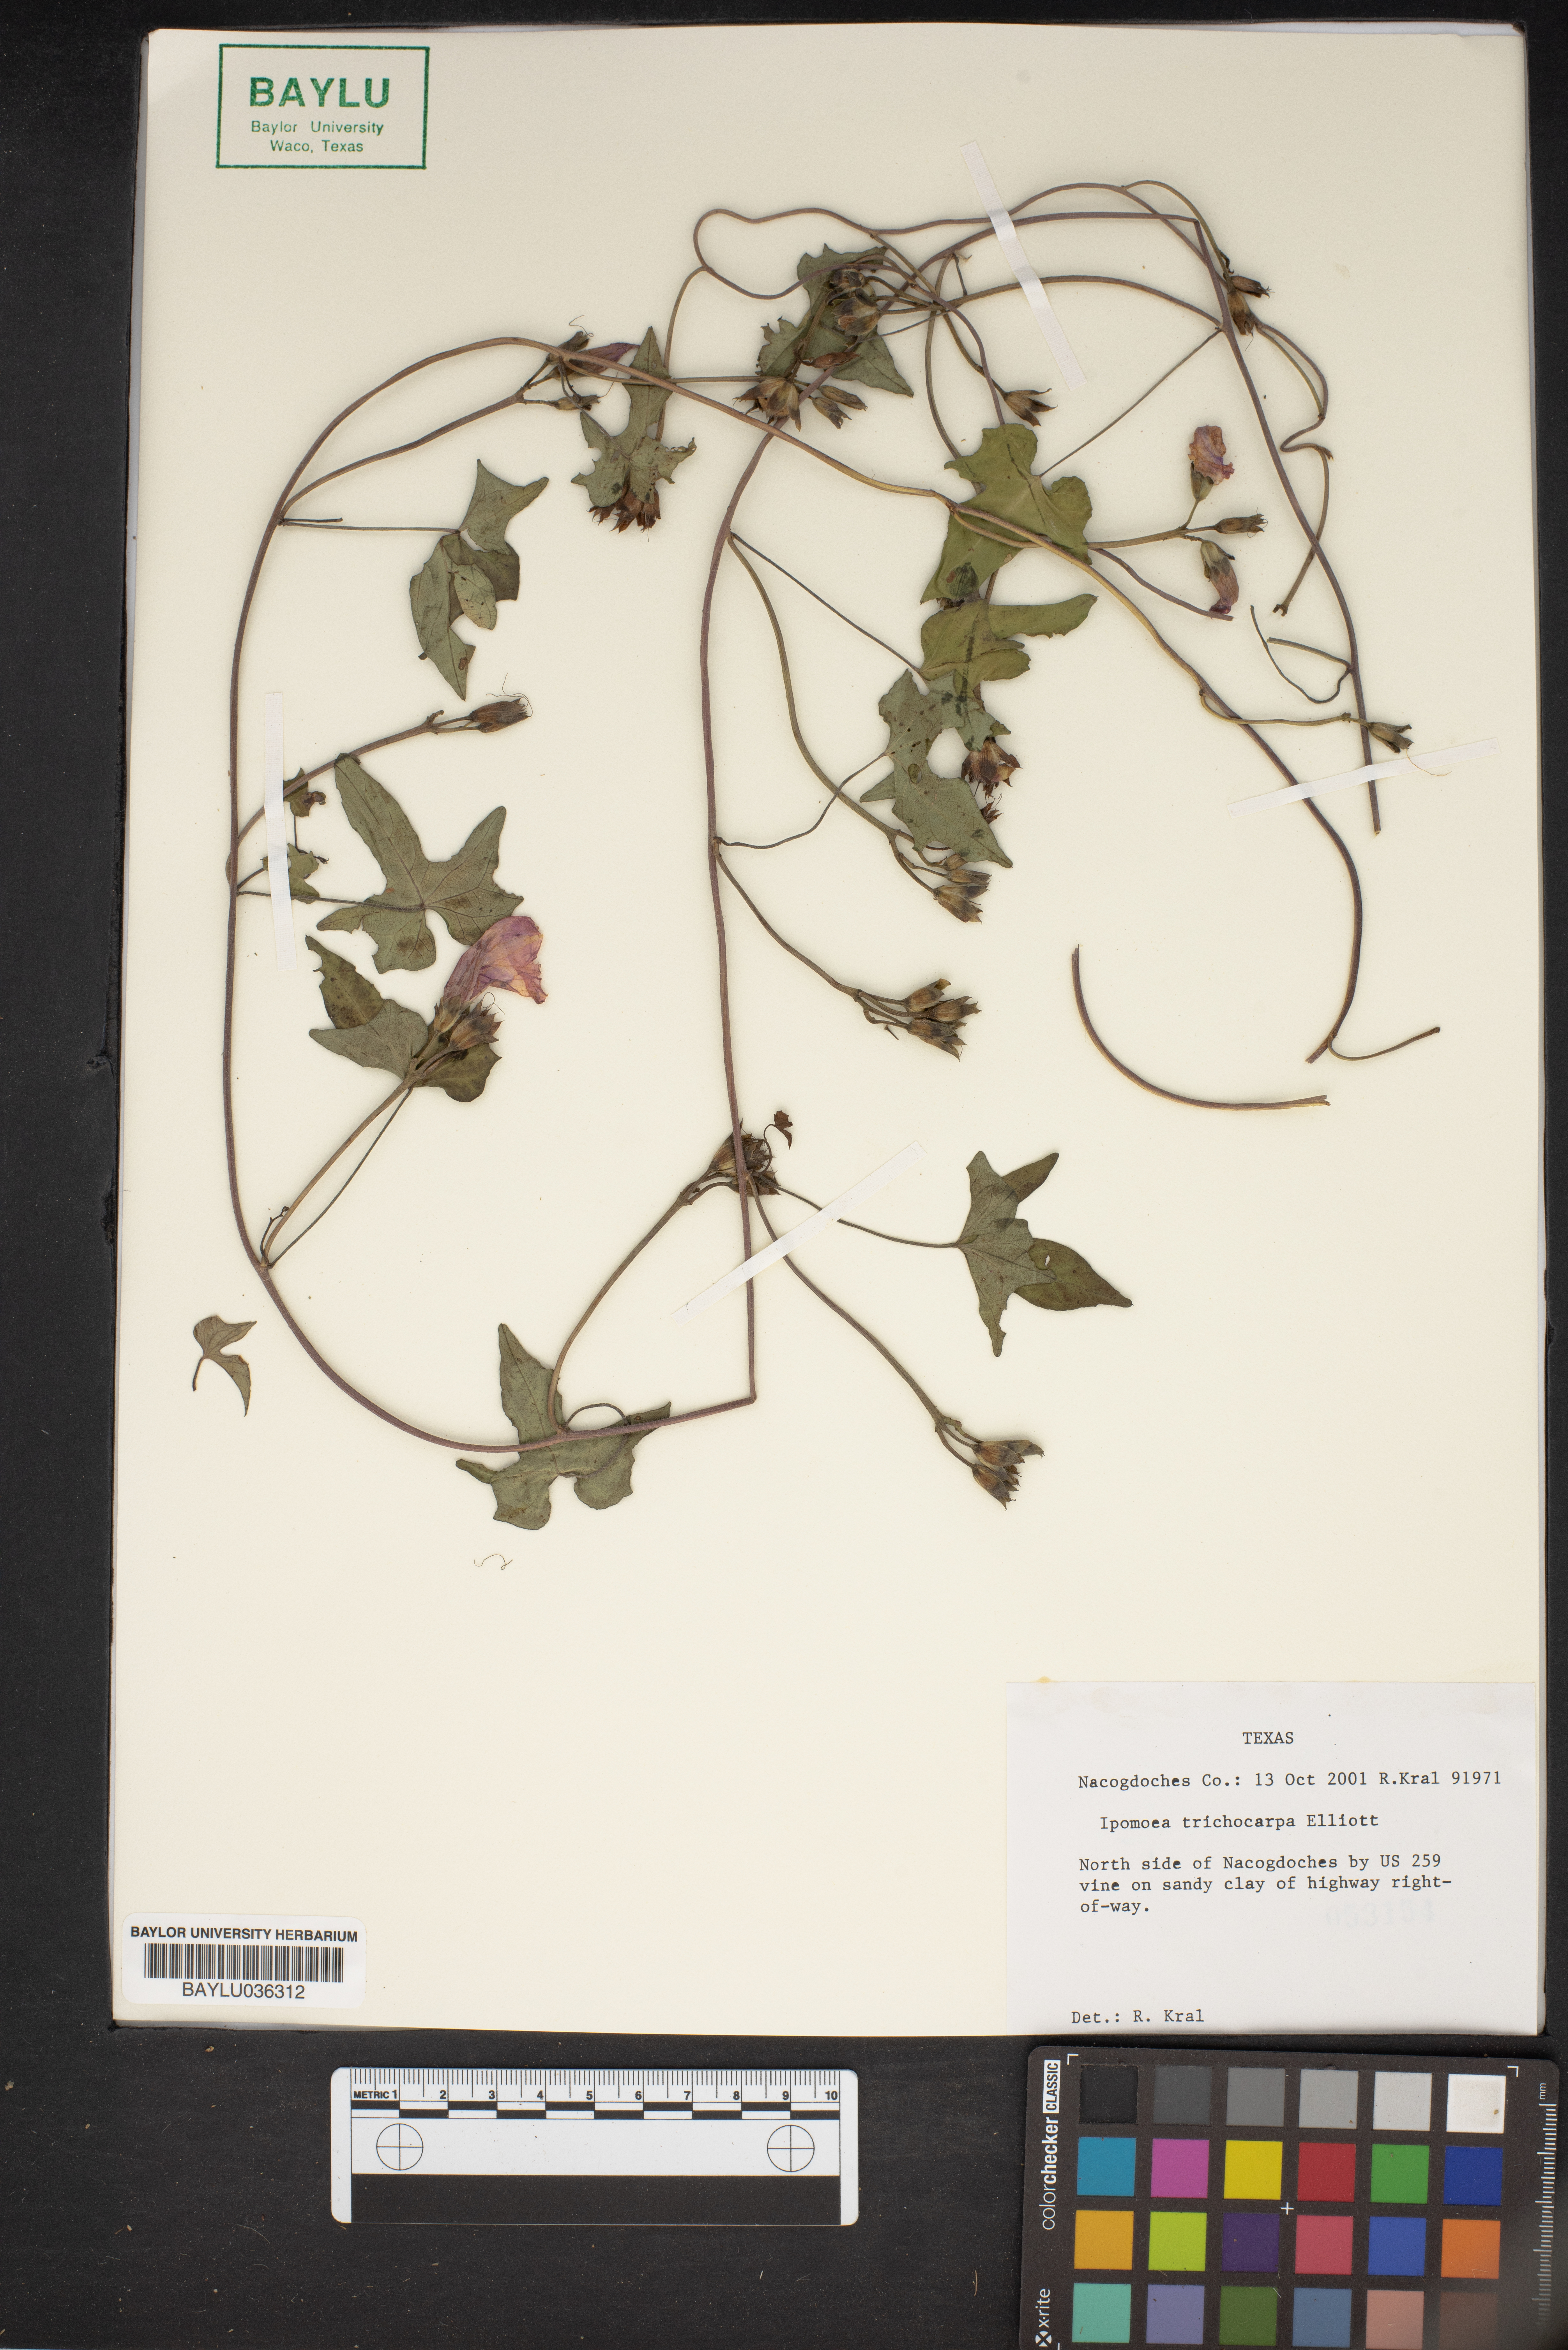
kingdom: Plantae
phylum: Tracheophyta
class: Magnoliopsida
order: Solanales
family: Convolvulaceae
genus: Ipomoea
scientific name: Ipomoea cordatotriloba
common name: Cotton morning glory
